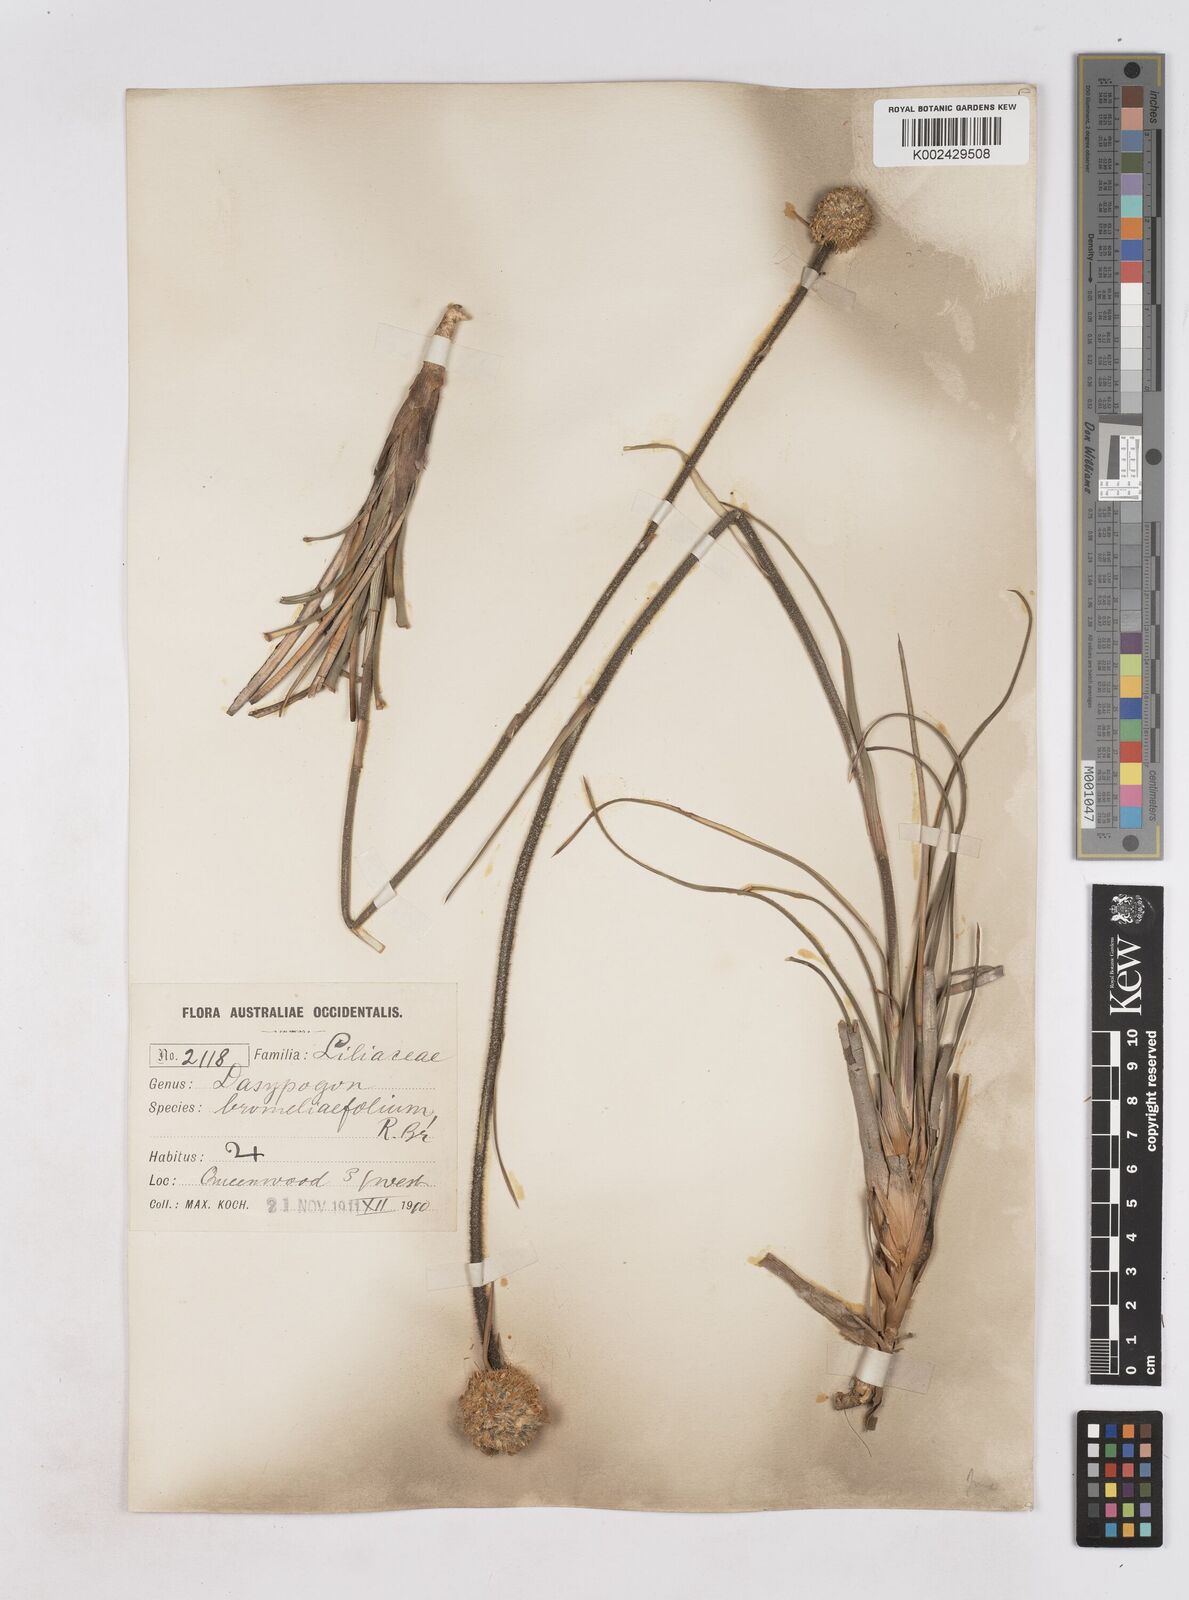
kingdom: Plantae
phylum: Tracheophyta
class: Liliopsida
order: Arecales
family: Dasypogonaceae
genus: Dasypogon
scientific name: Dasypogon bromeliifolius
